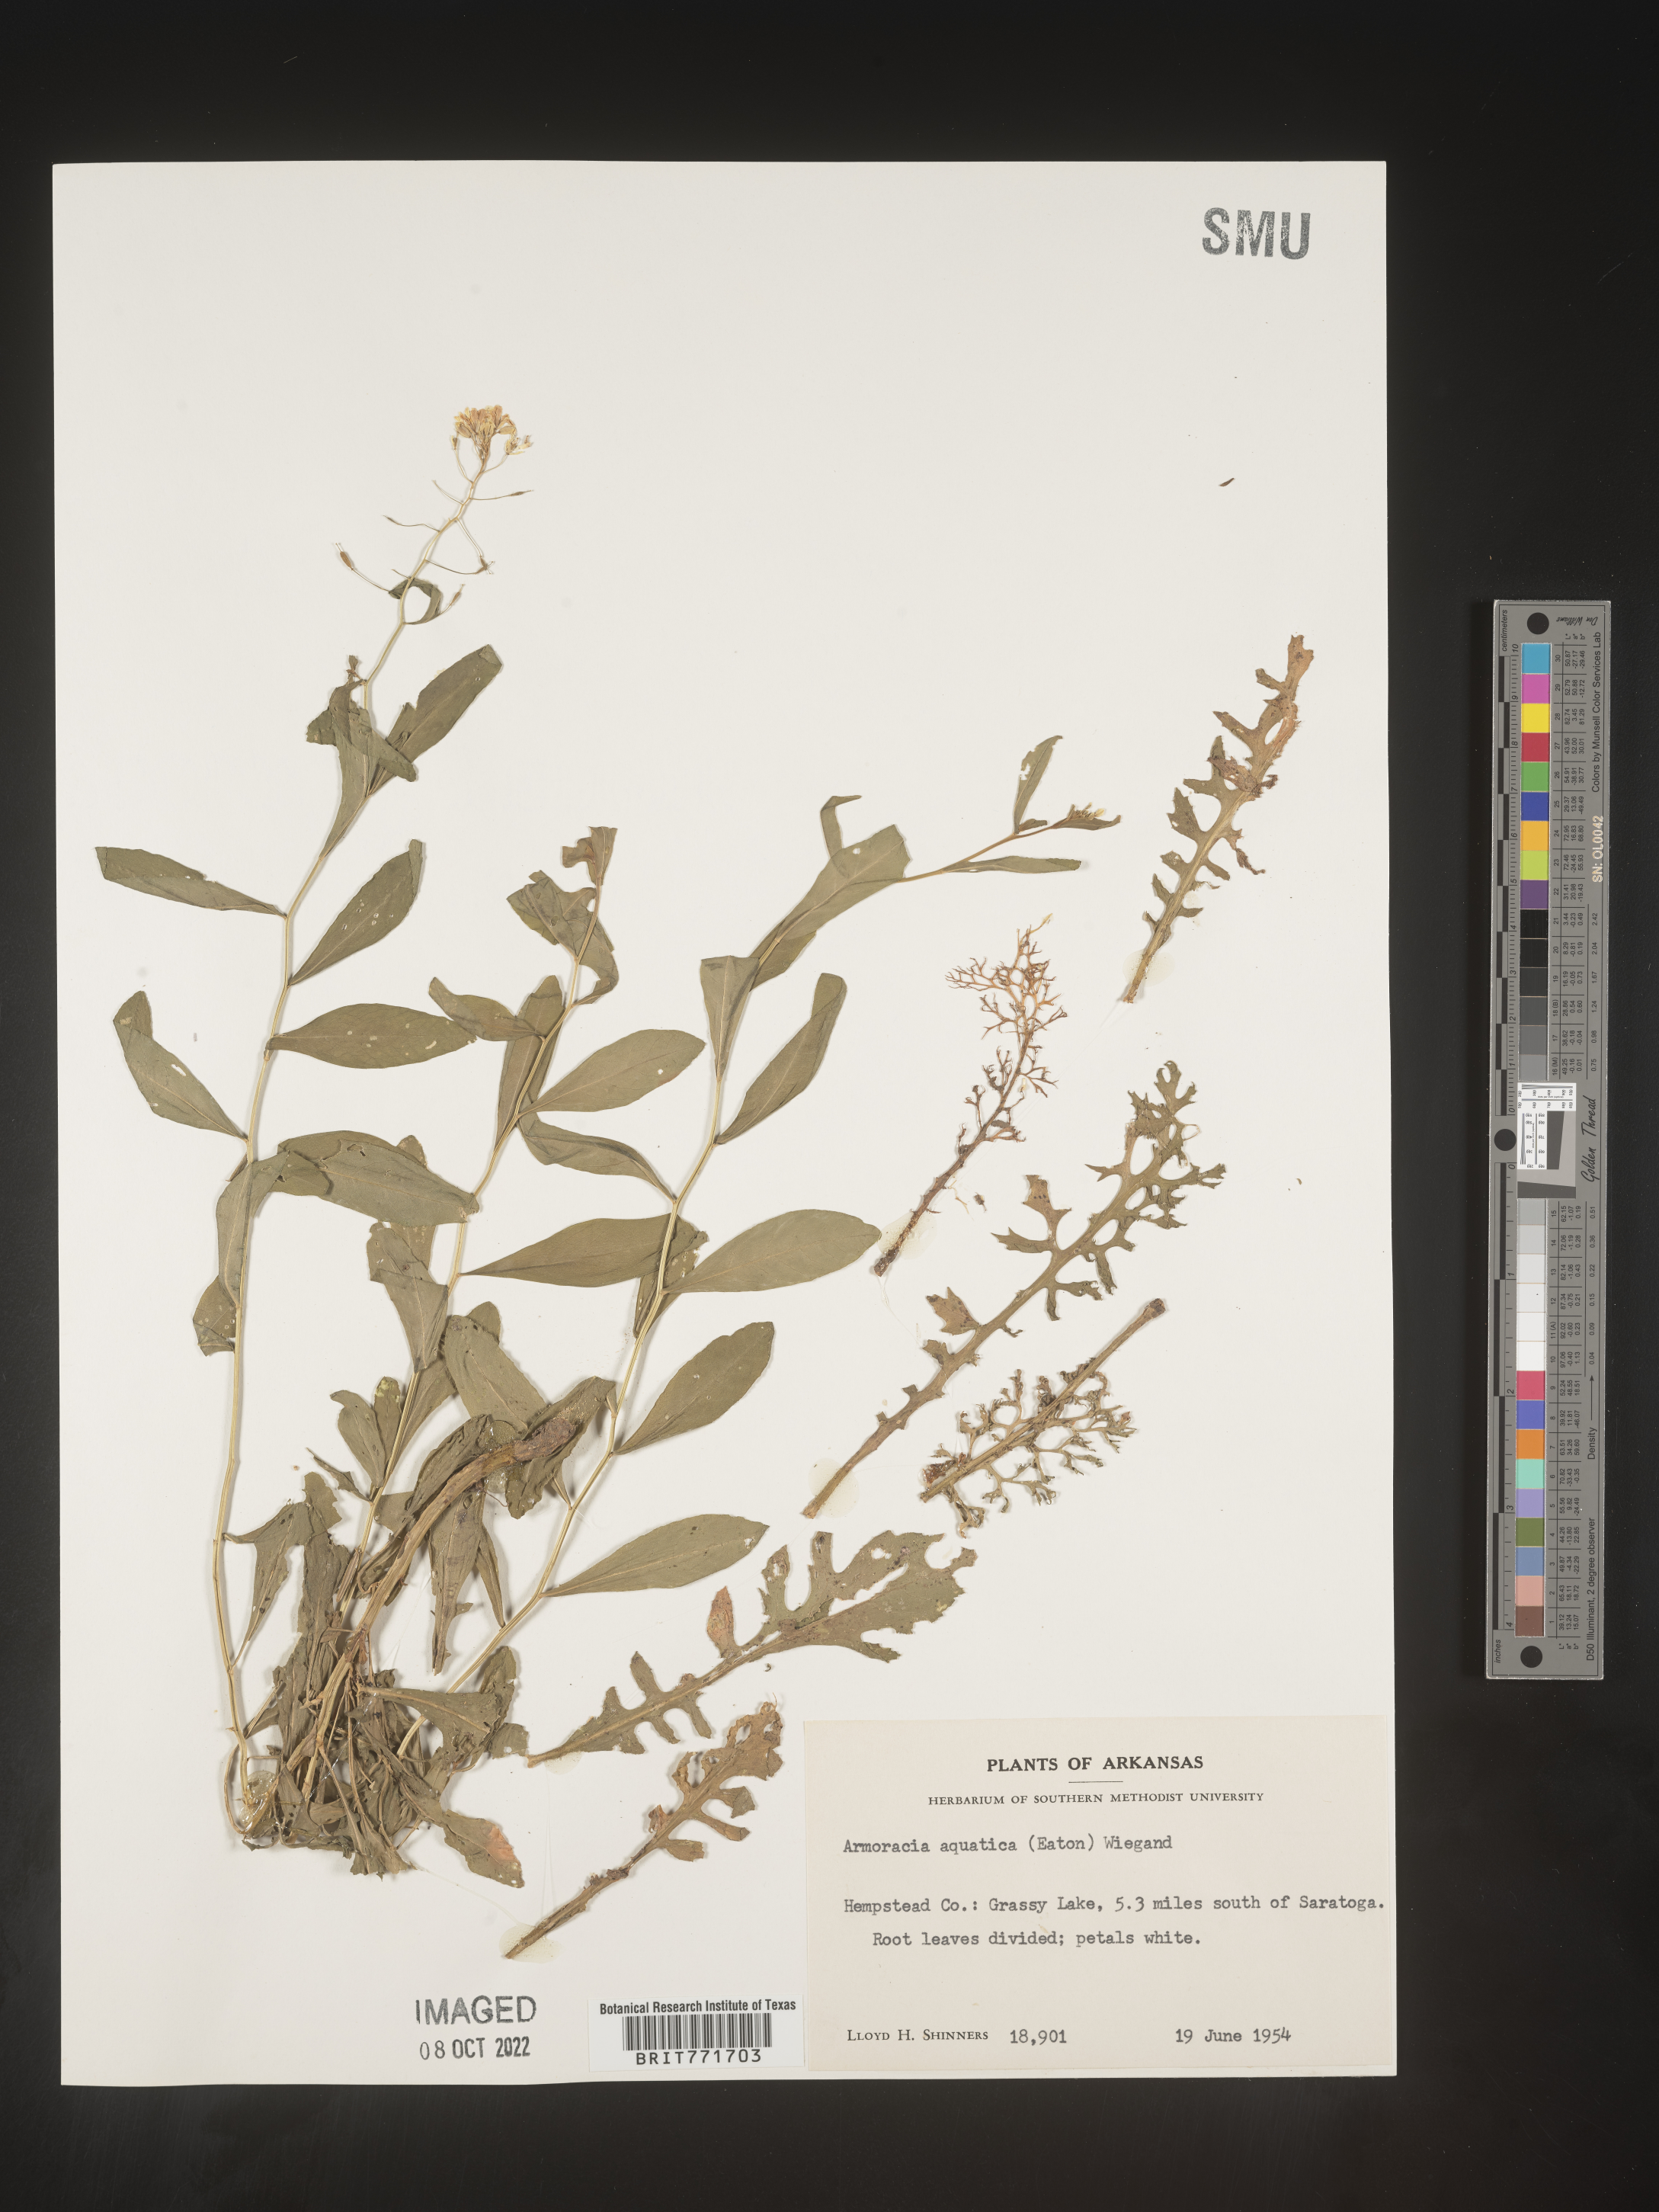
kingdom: Plantae
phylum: Tracheophyta
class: Magnoliopsida
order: Brassicales
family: Brassicaceae
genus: Armoracia
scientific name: Armoracia
